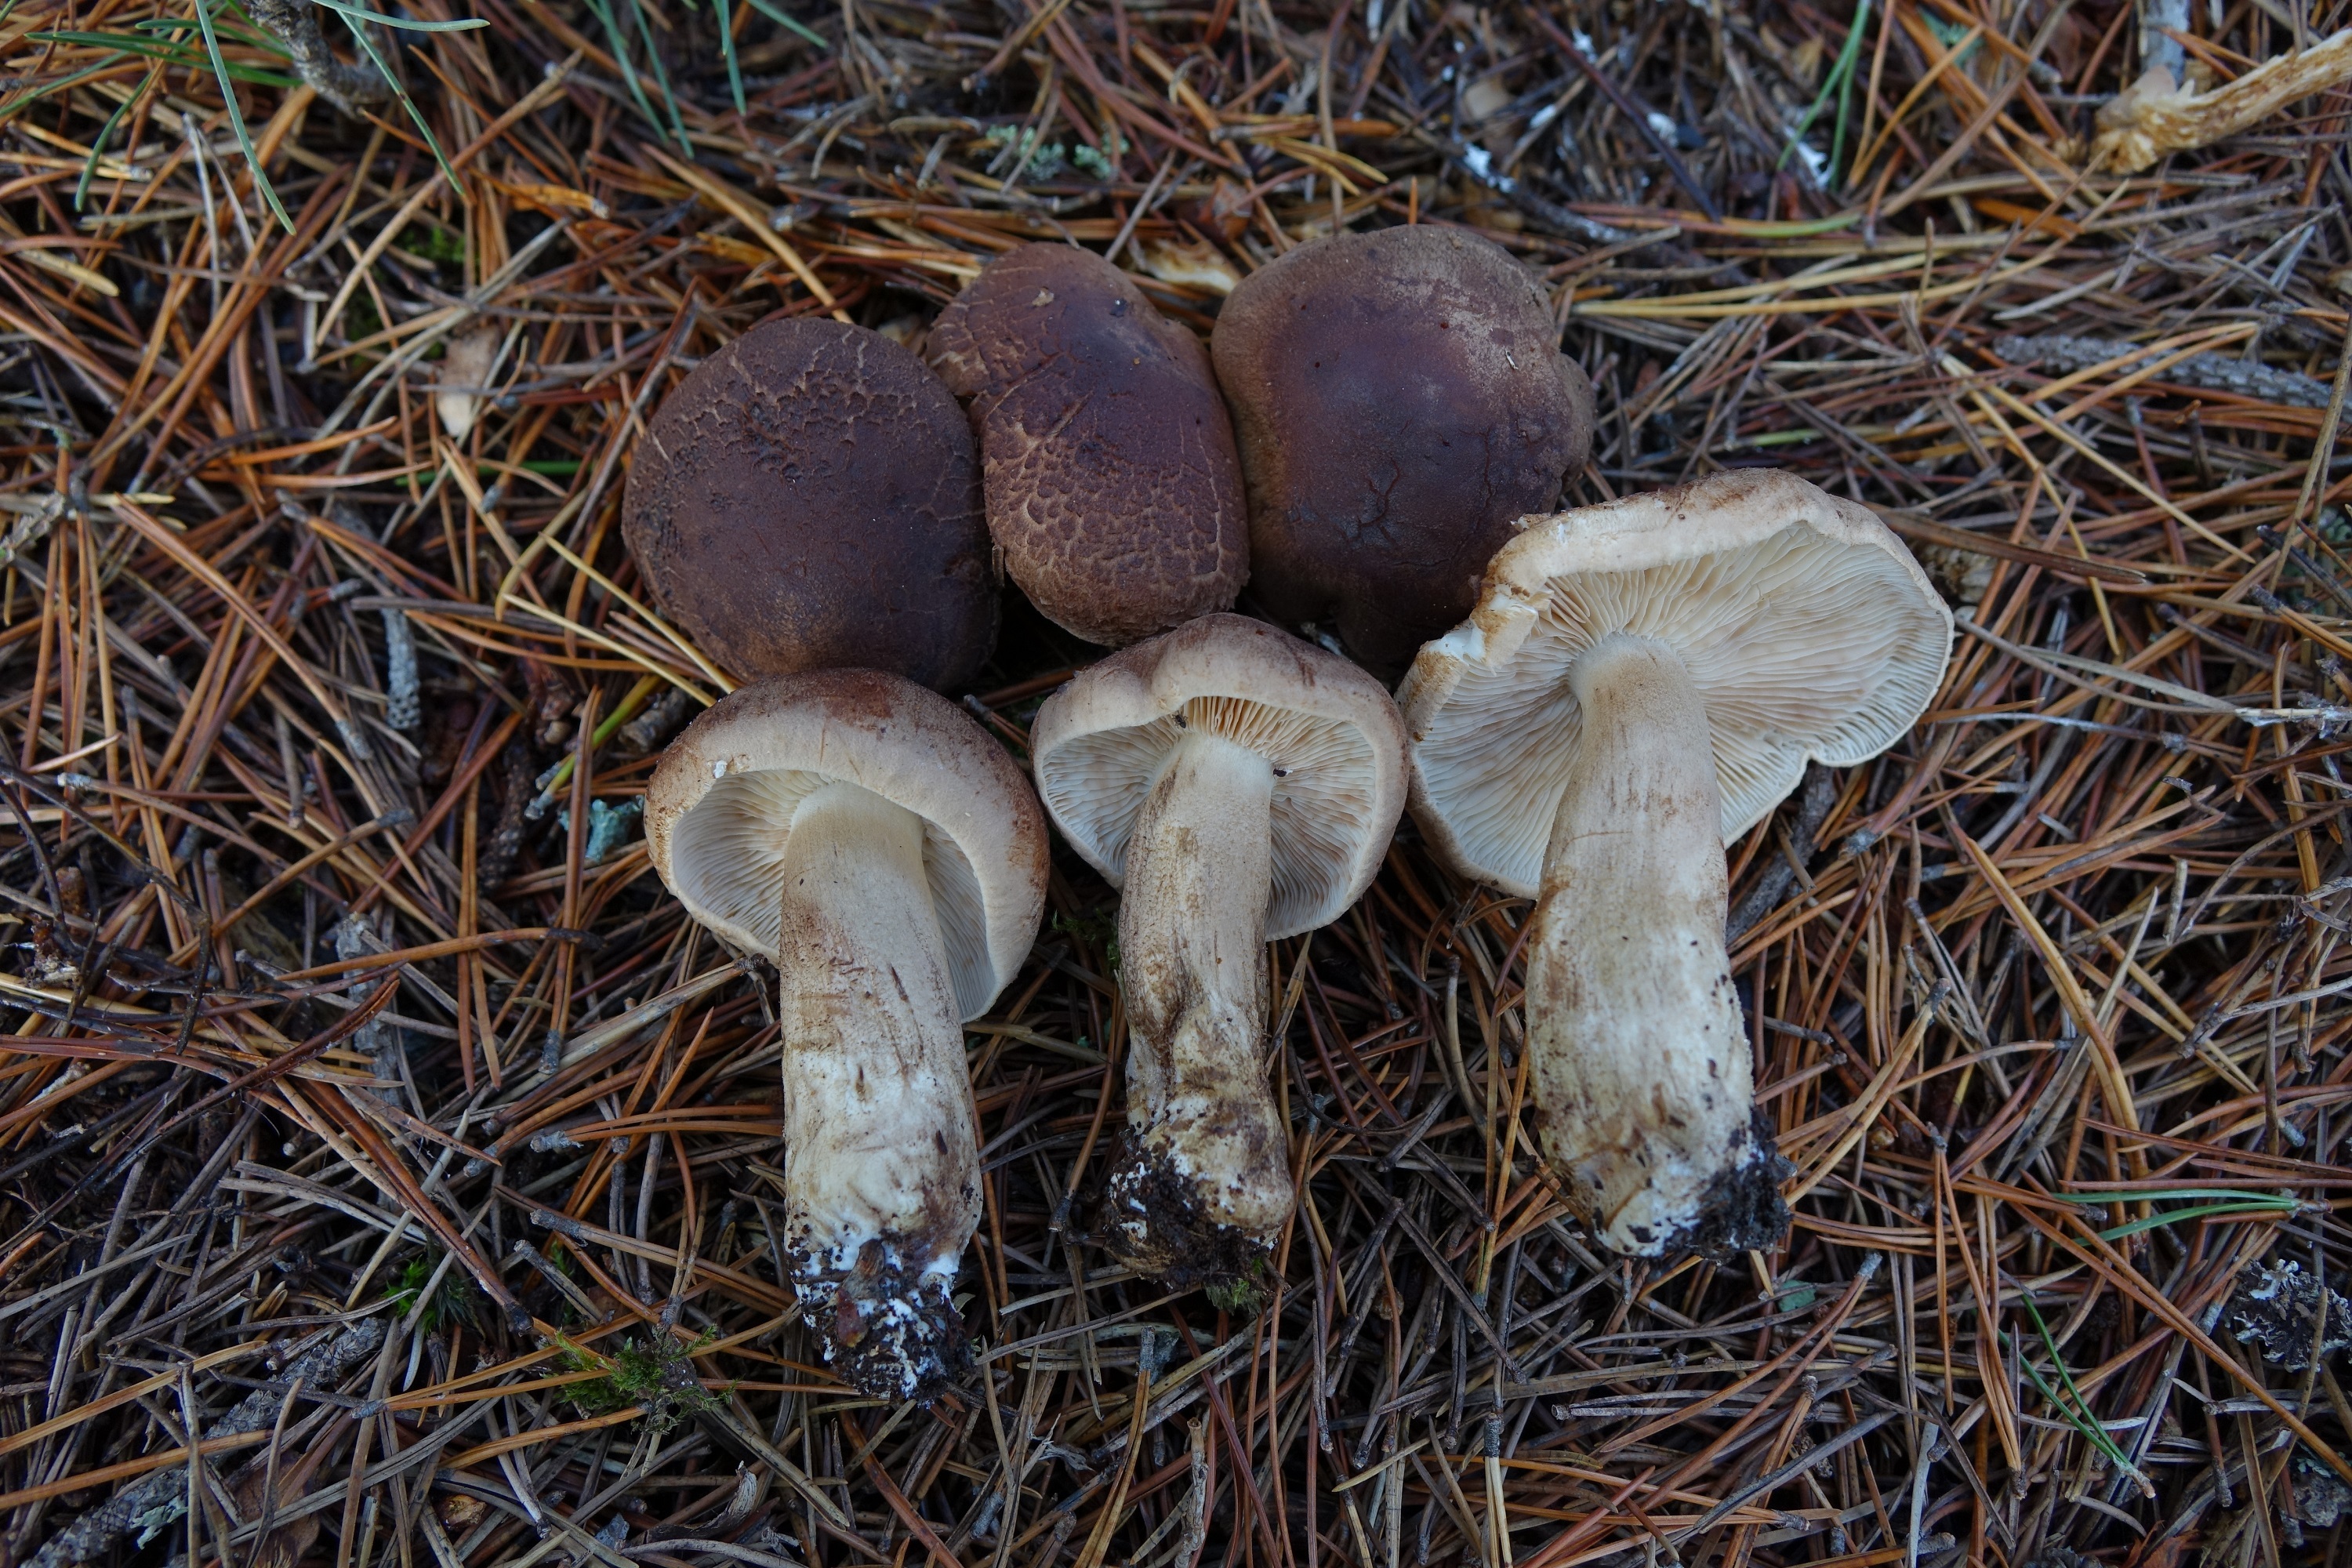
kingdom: Fungi
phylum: Basidiomycota
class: Agaricomycetes
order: Agaricales
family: Tricholomataceae
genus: Tricholoma
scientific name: Tricholoma imbricatum
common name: Matt knight
